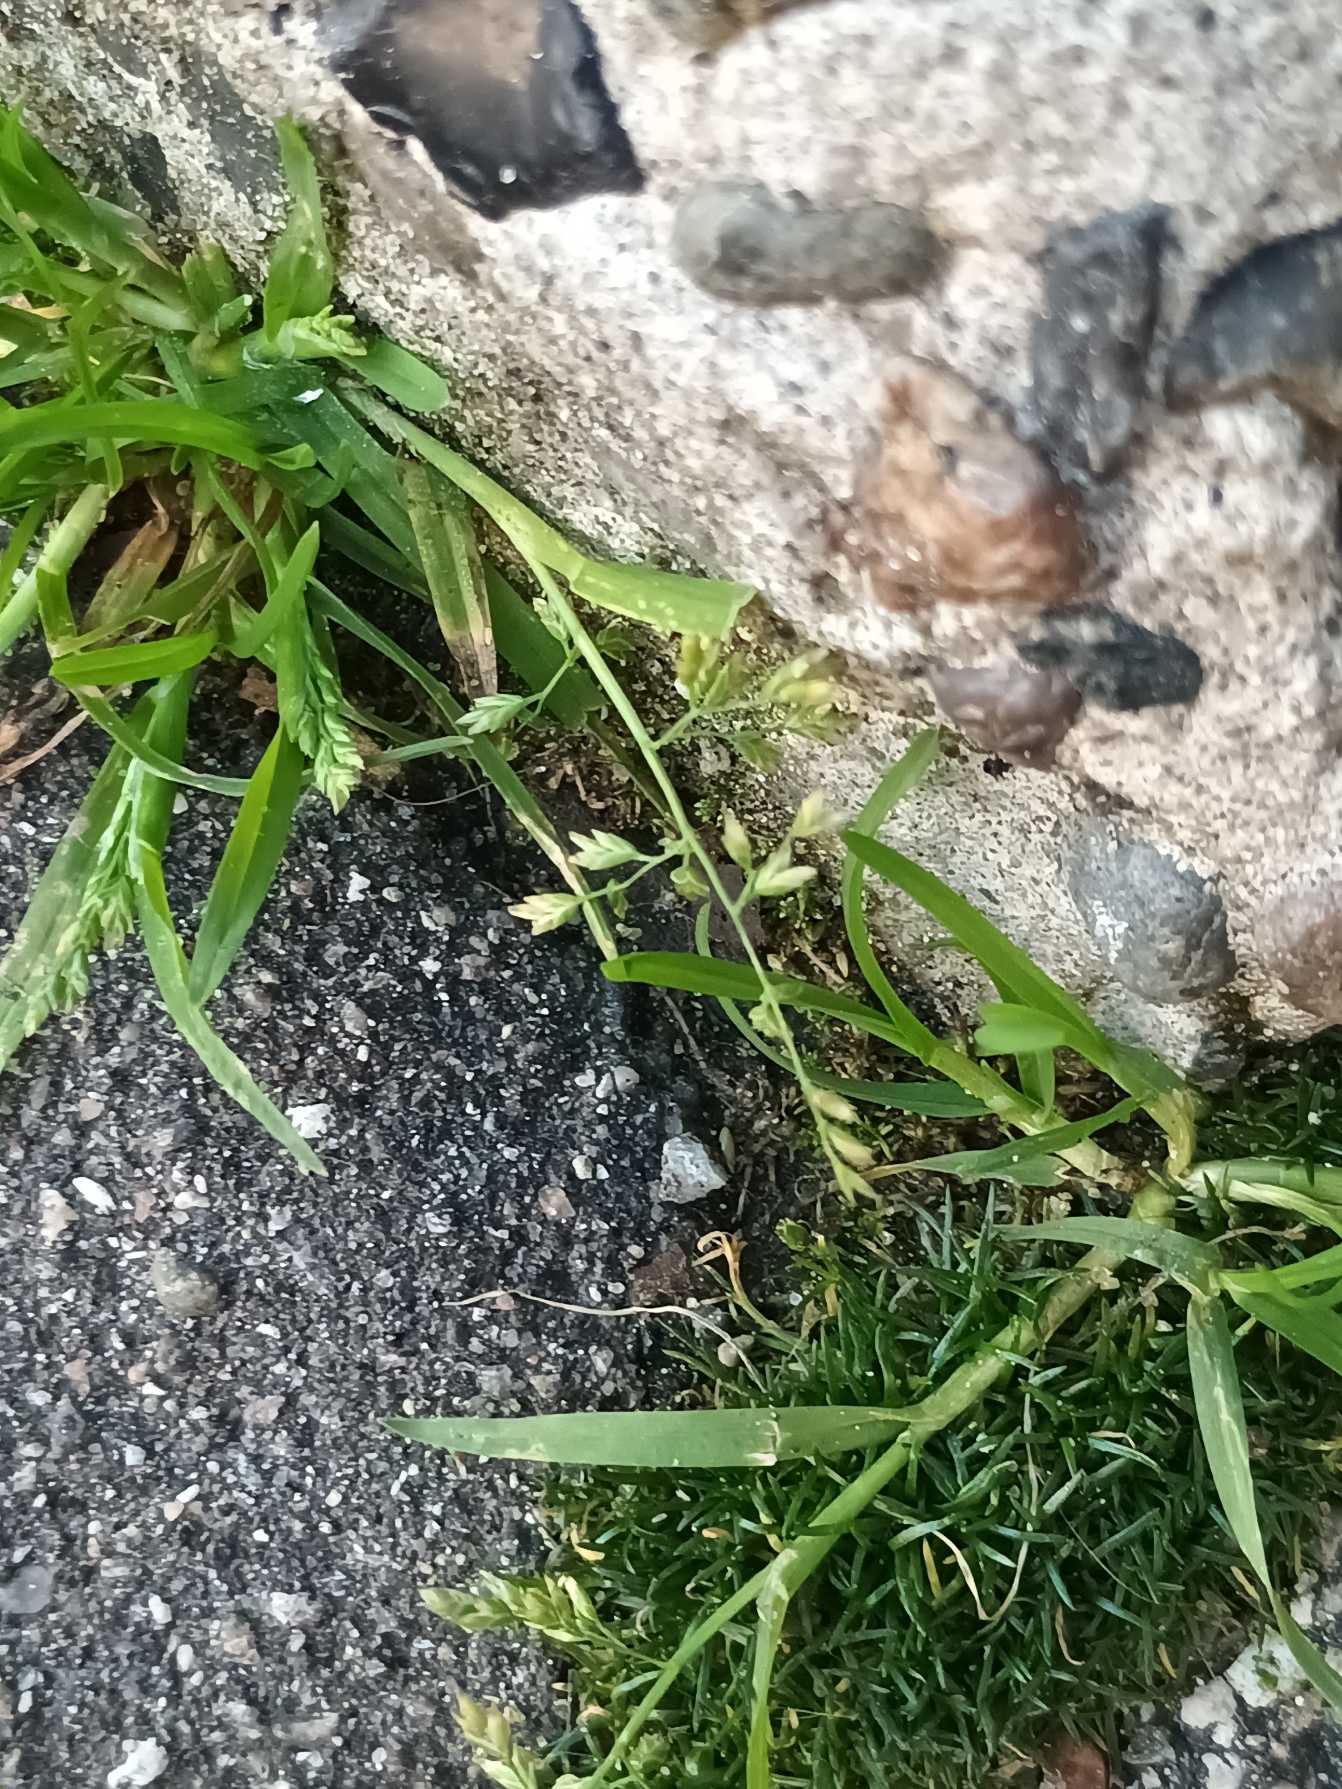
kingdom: Plantae
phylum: Tracheophyta
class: Liliopsida
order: Poales
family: Poaceae
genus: Poa
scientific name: Poa annua
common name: Enårig rapgræs
